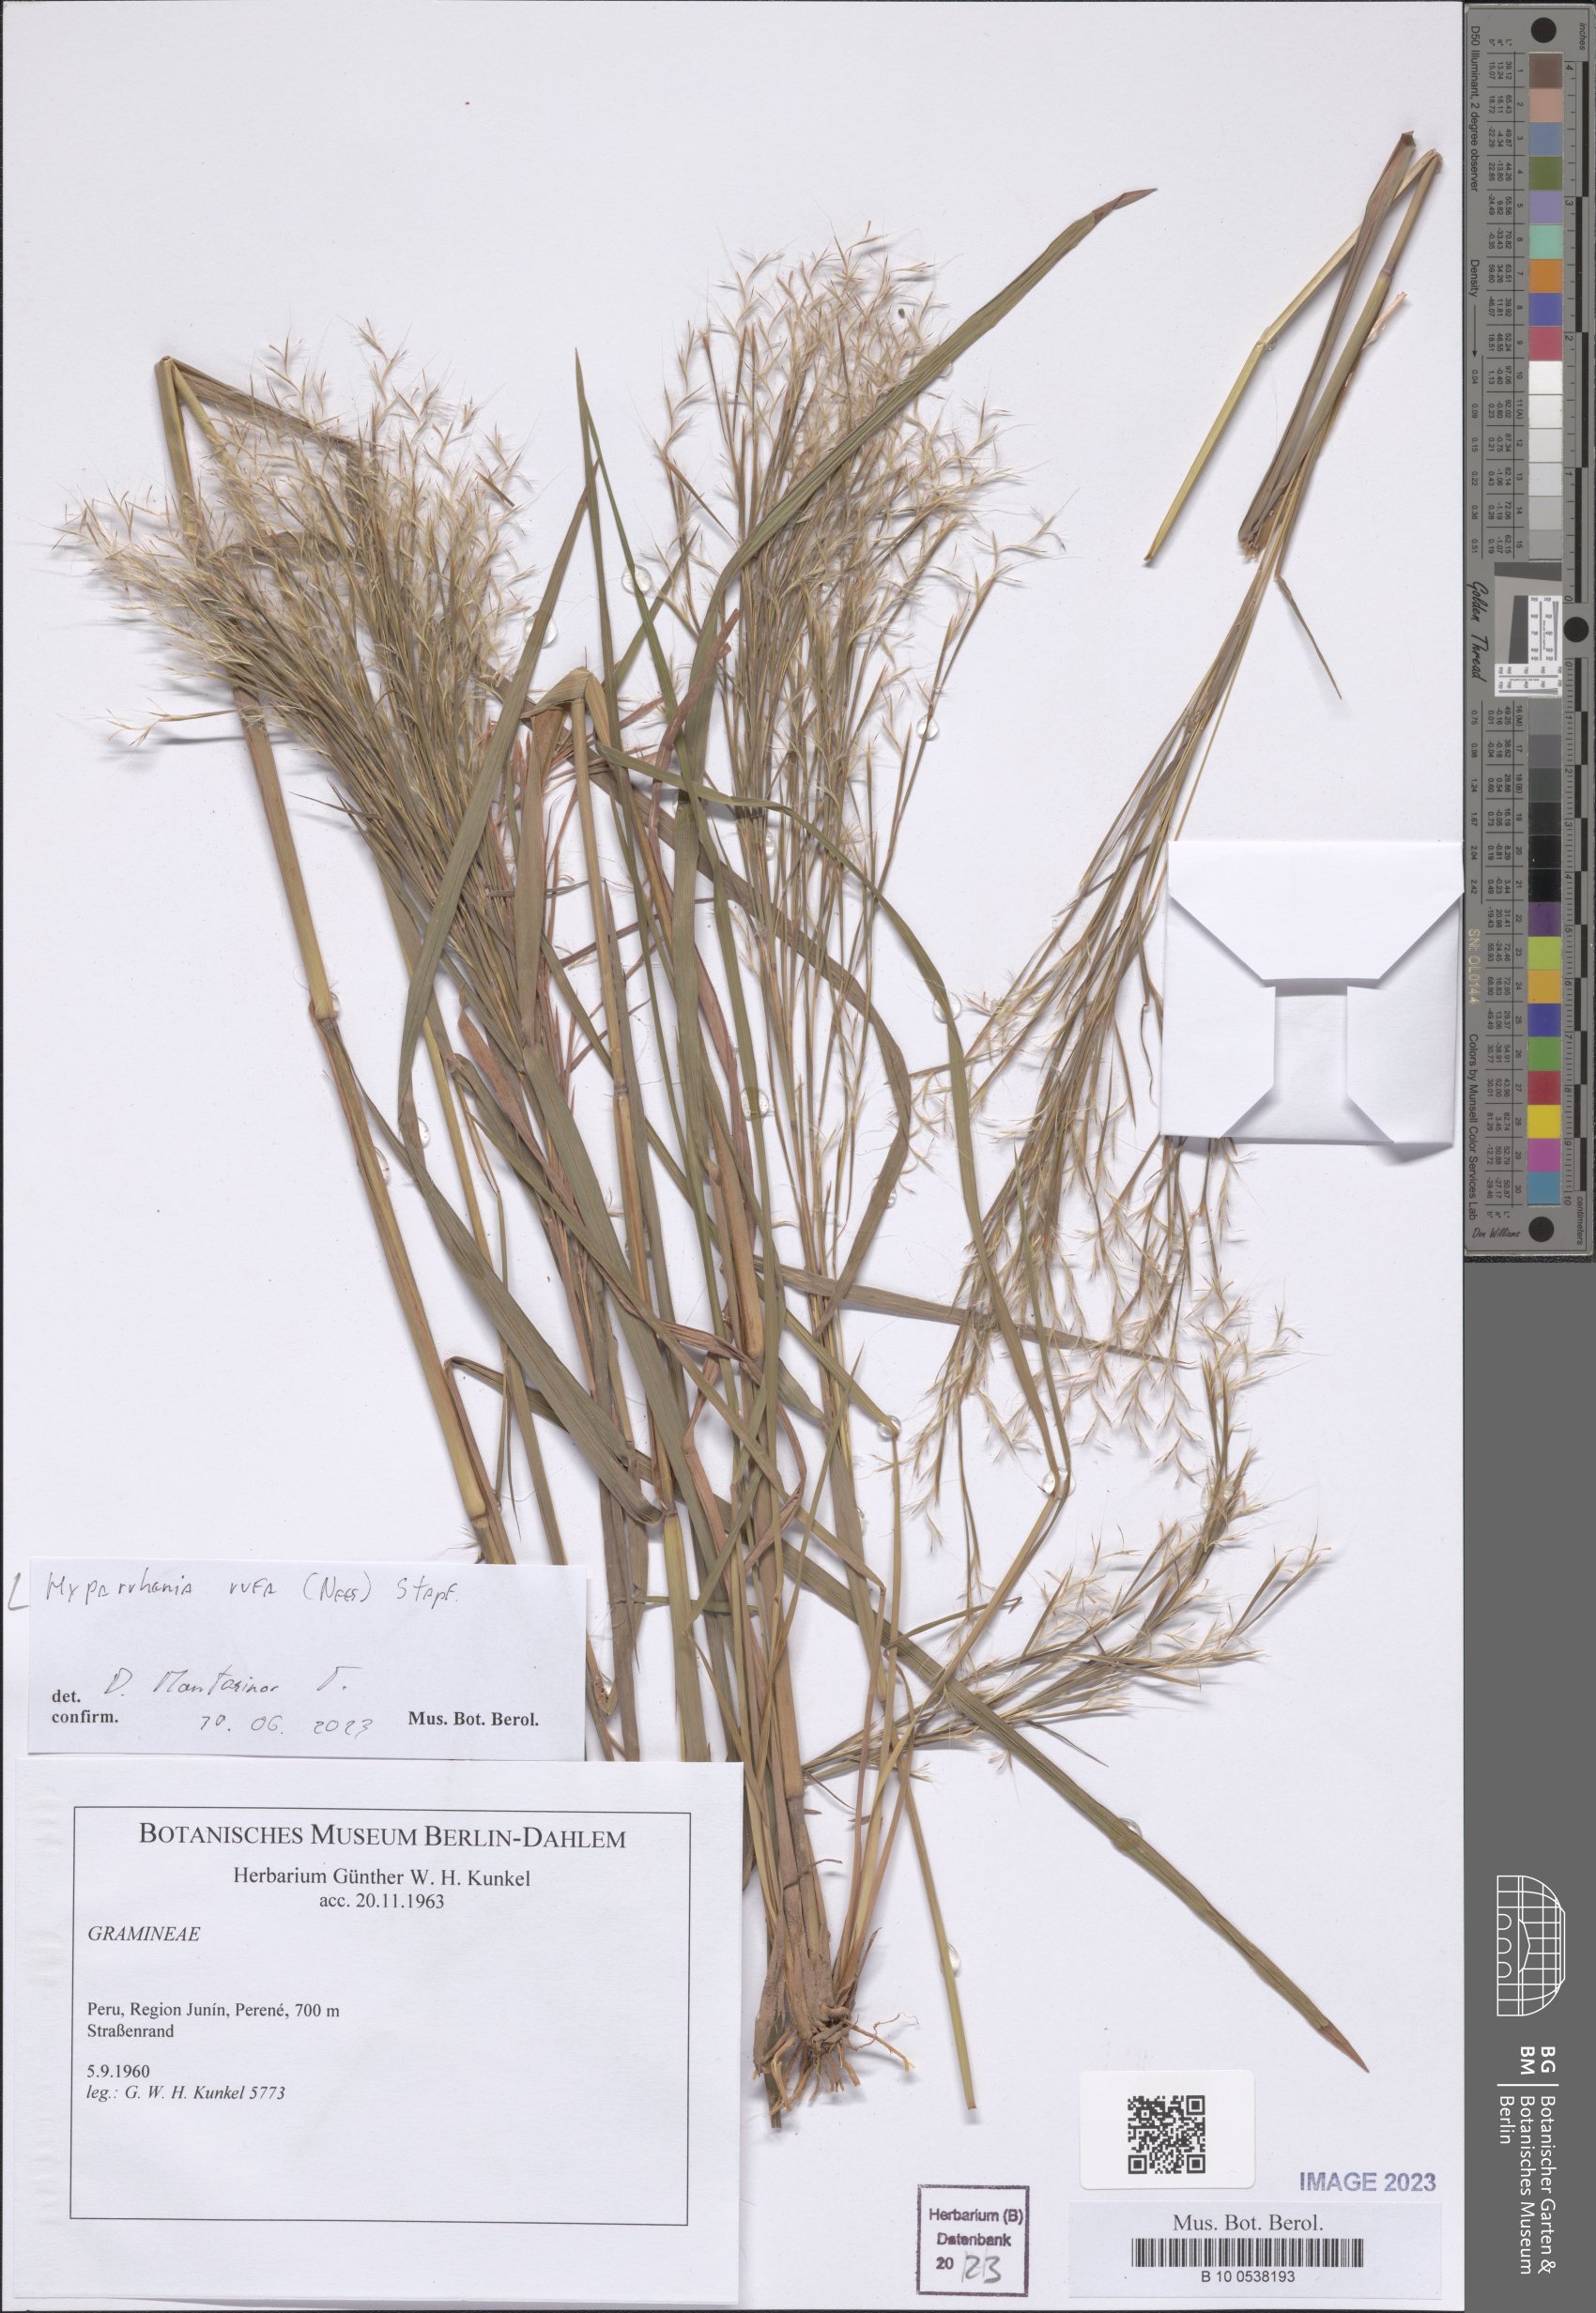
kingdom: Plantae
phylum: Tracheophyta
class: Liliopsida
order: Poales
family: Poaceae
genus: Hyparrhenia
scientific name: Hyparrhenia rufa
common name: Jaraguagrass
